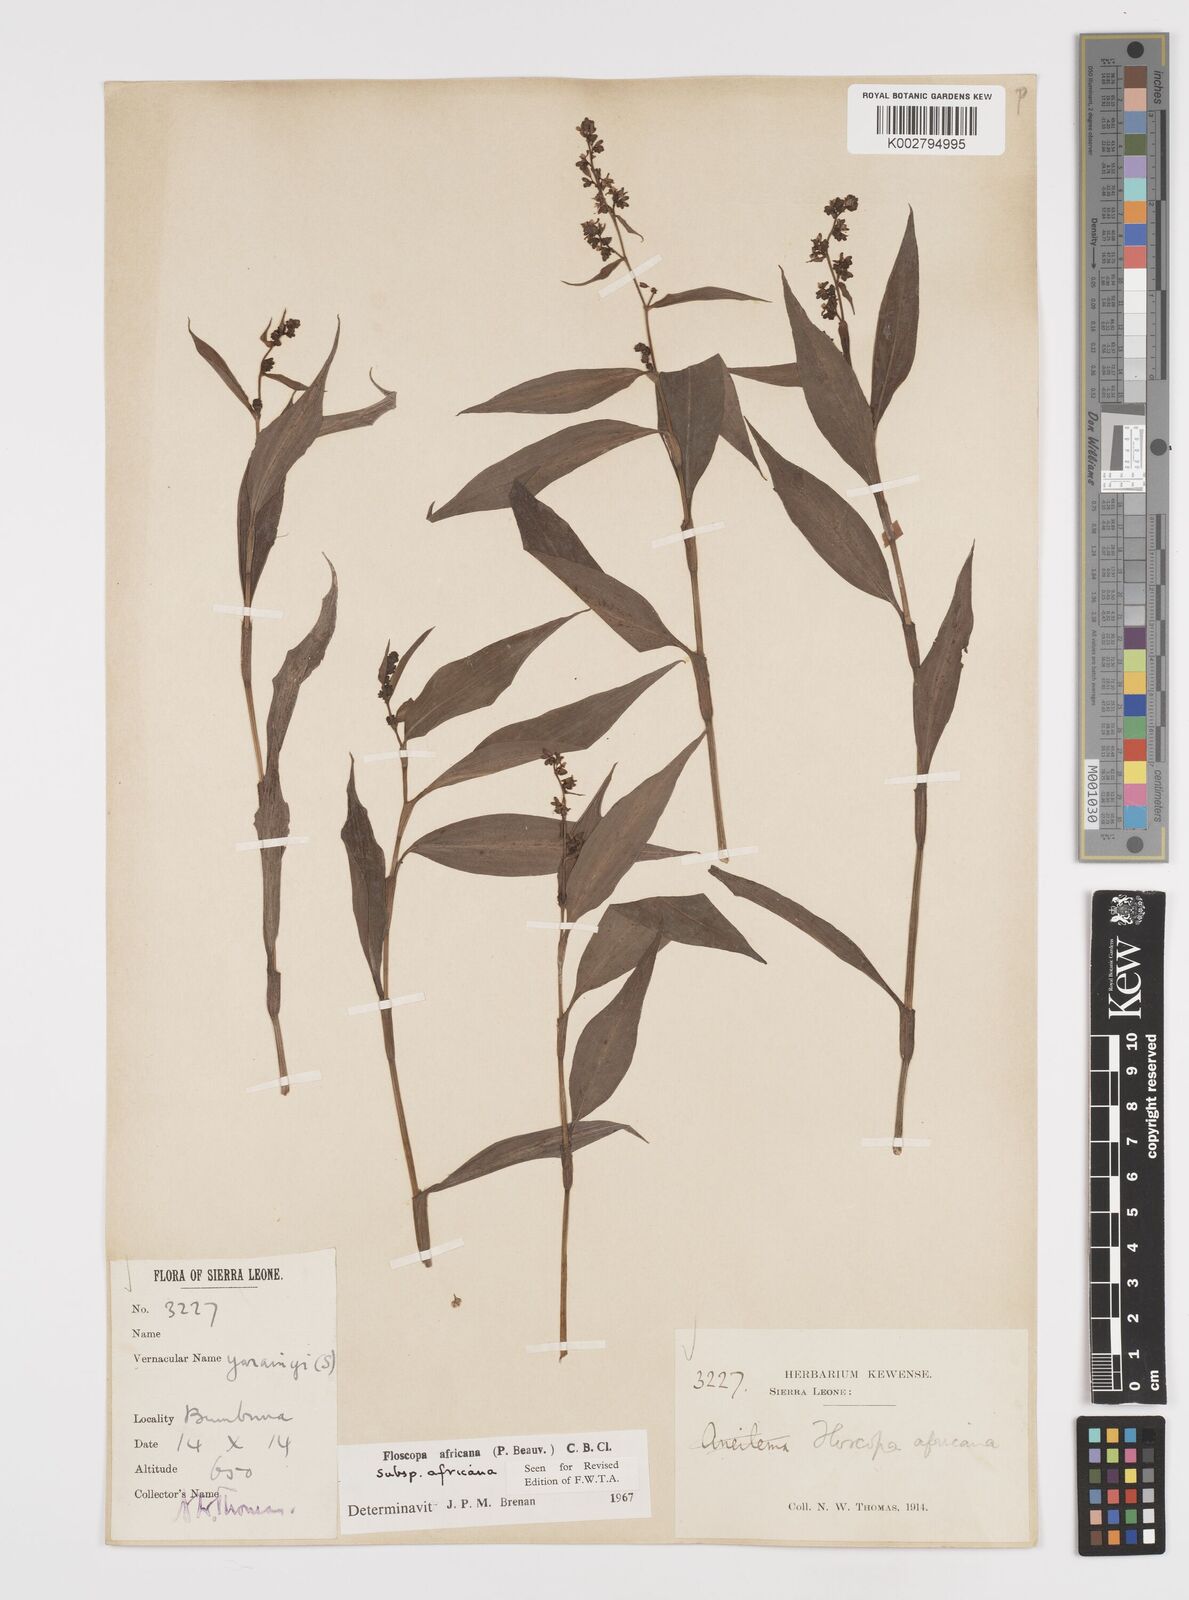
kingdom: Plantae
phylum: Tracheophyta
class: Liliopsida
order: Commelinales
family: Commelinaceae
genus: Floscopa
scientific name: Floscopa africana
